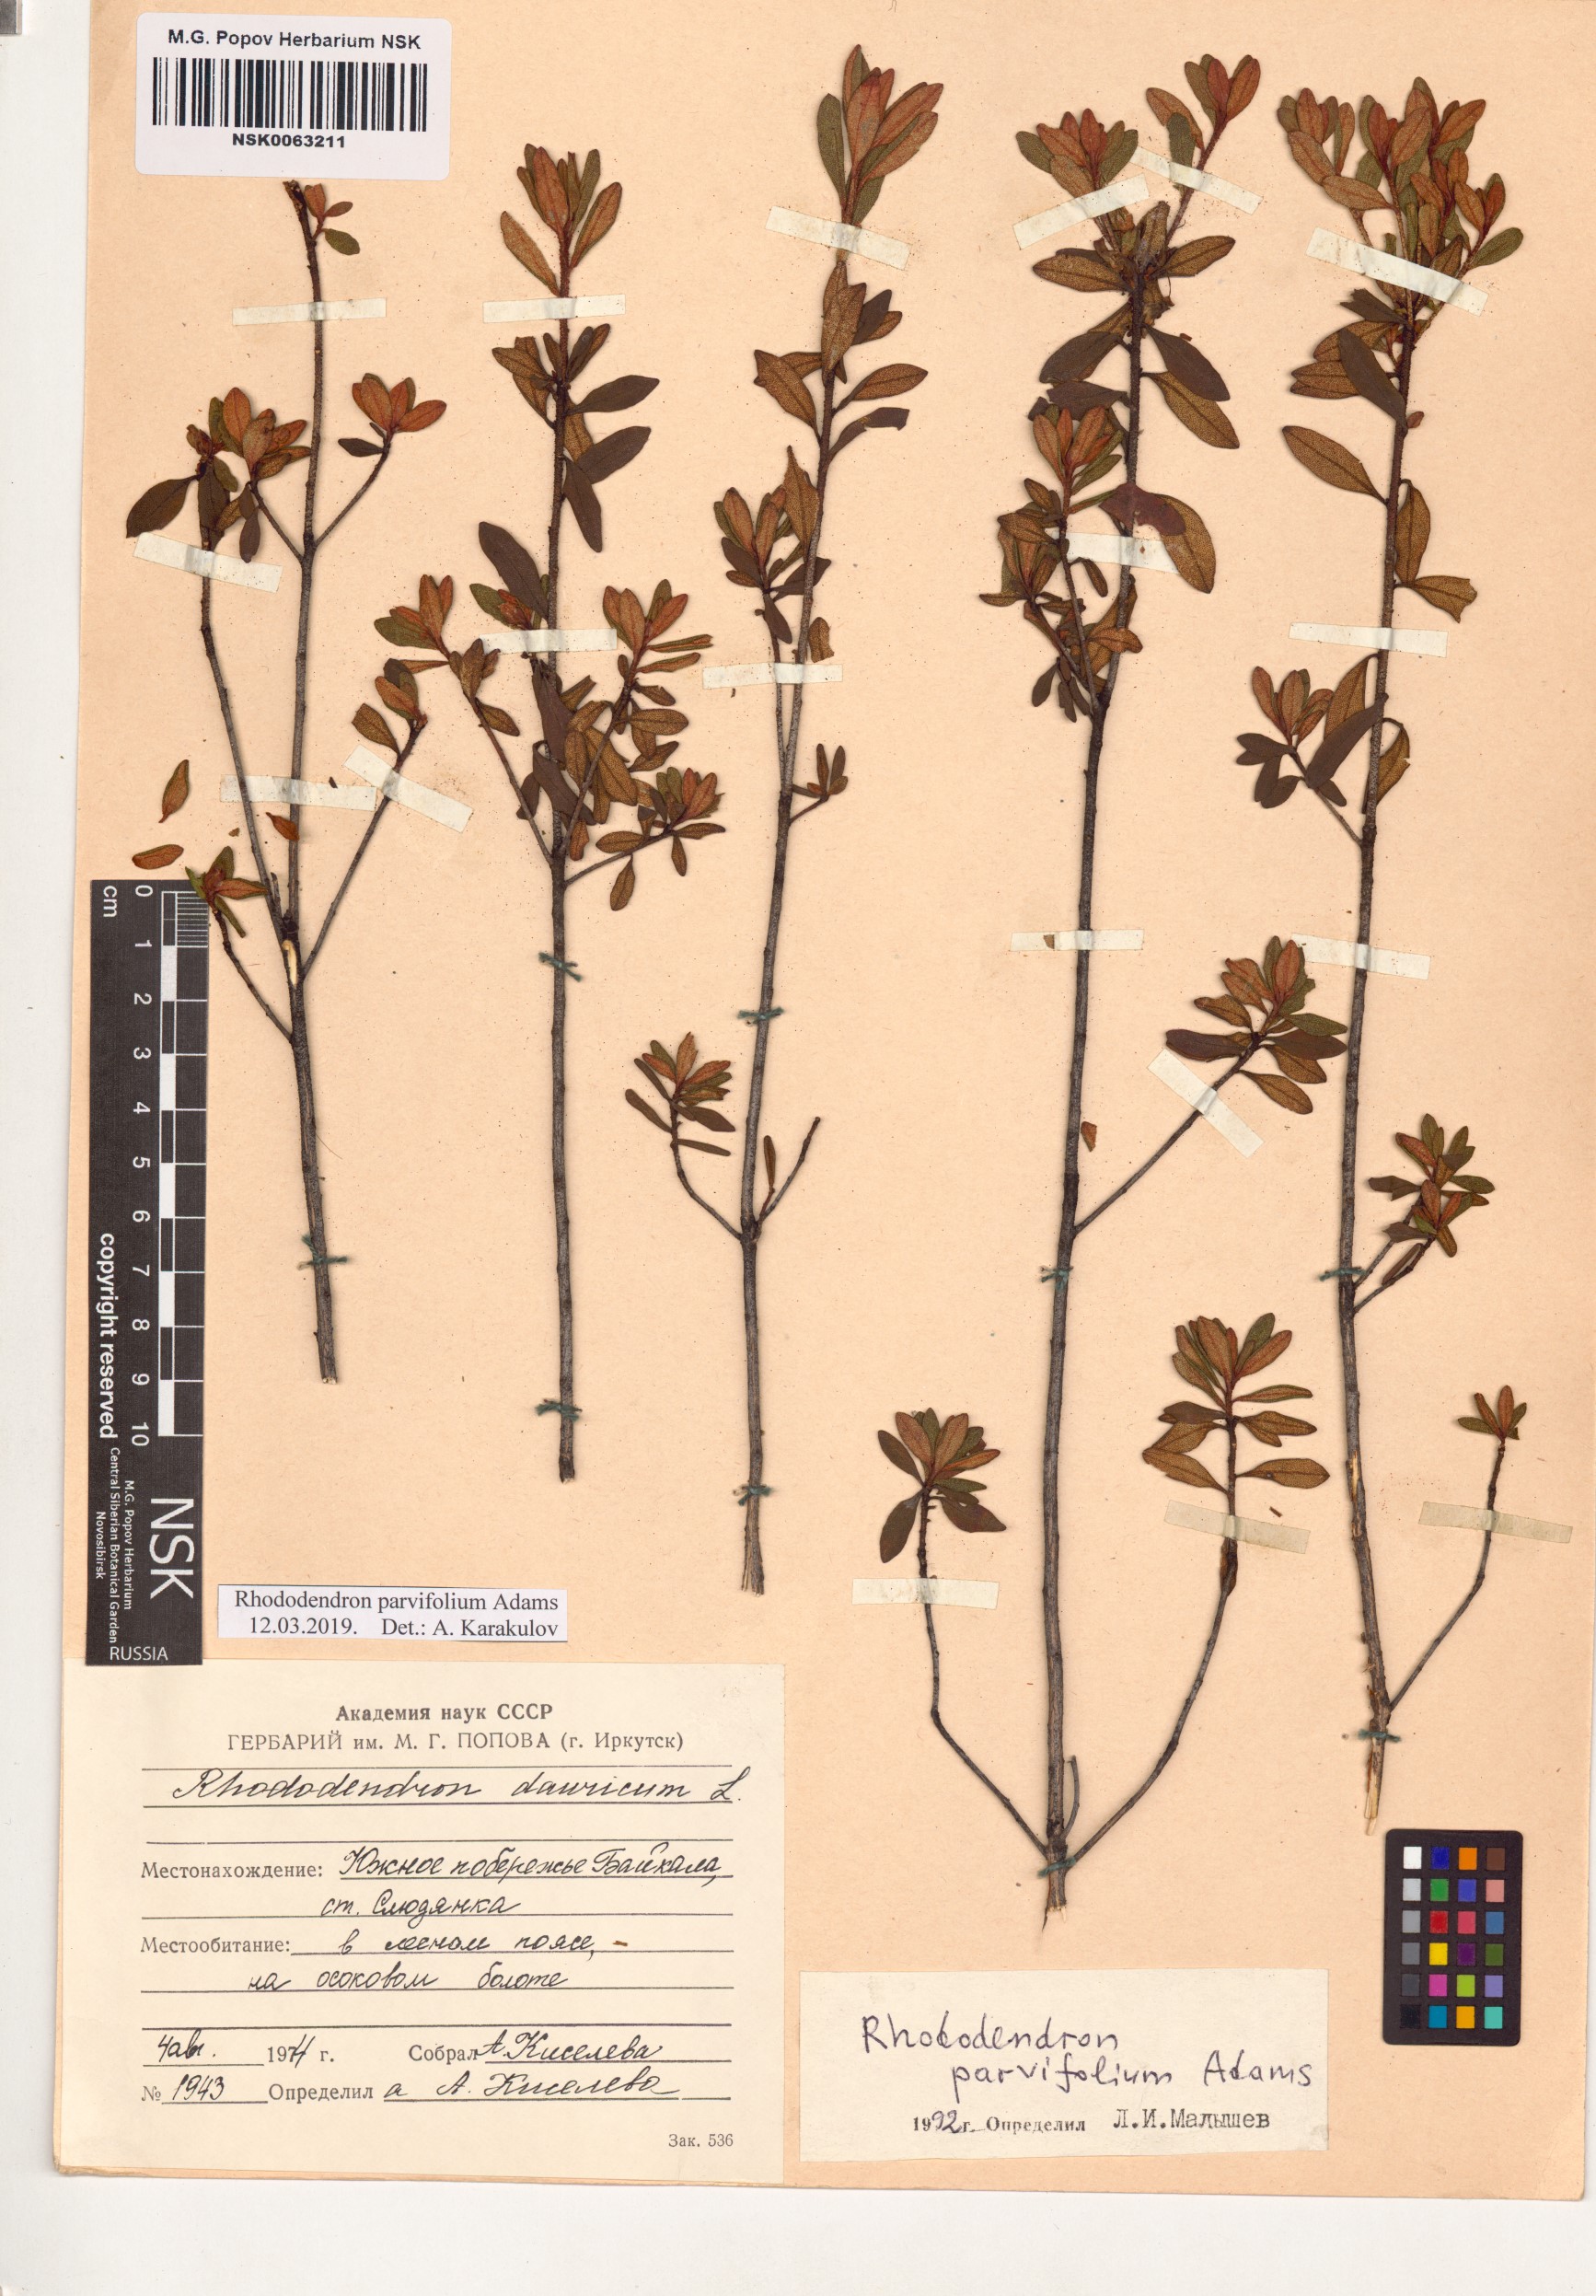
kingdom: Plantae
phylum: Tracheophyta
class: Magnoliopsida
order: Ericales
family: Ericaceae
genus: Rhododendron
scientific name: Rhododendron parvifolium
